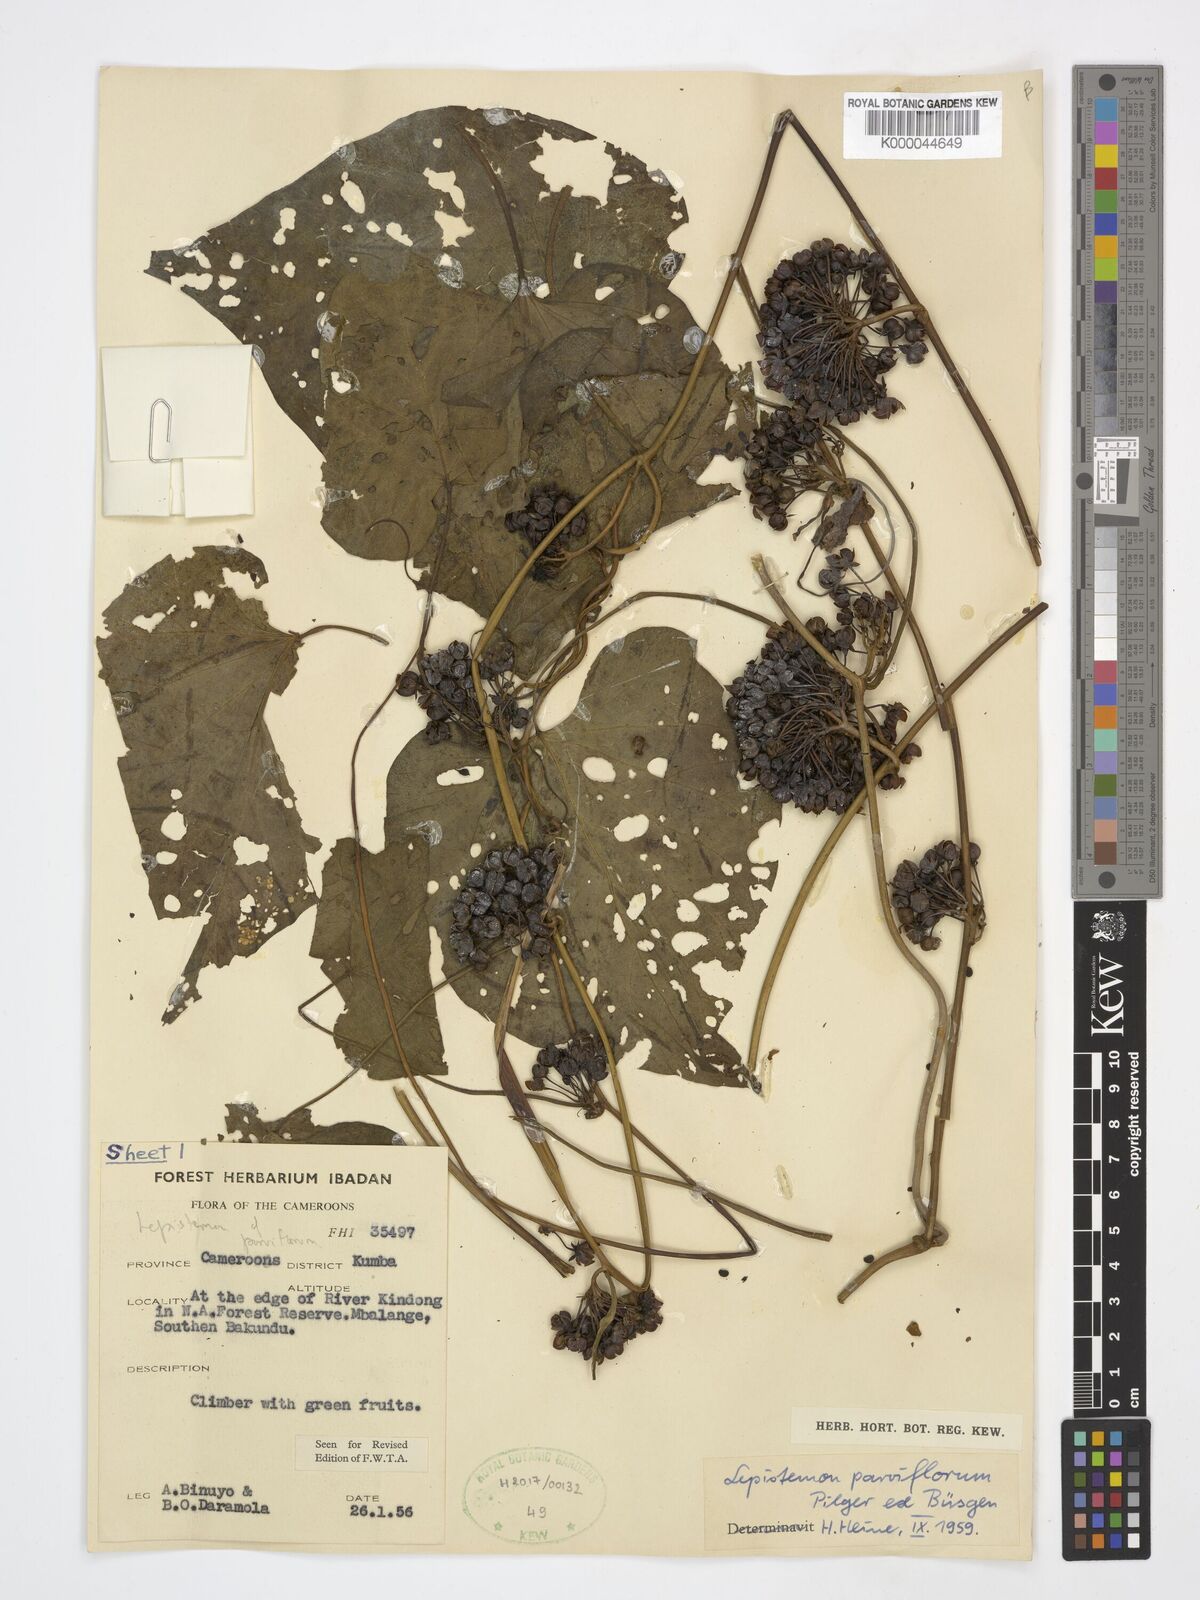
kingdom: Plantae
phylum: Tracheophyta
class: Magnoliopsida
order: Solanales
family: Convolvulaceae
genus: Lepistemon
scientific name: Lepistemon
